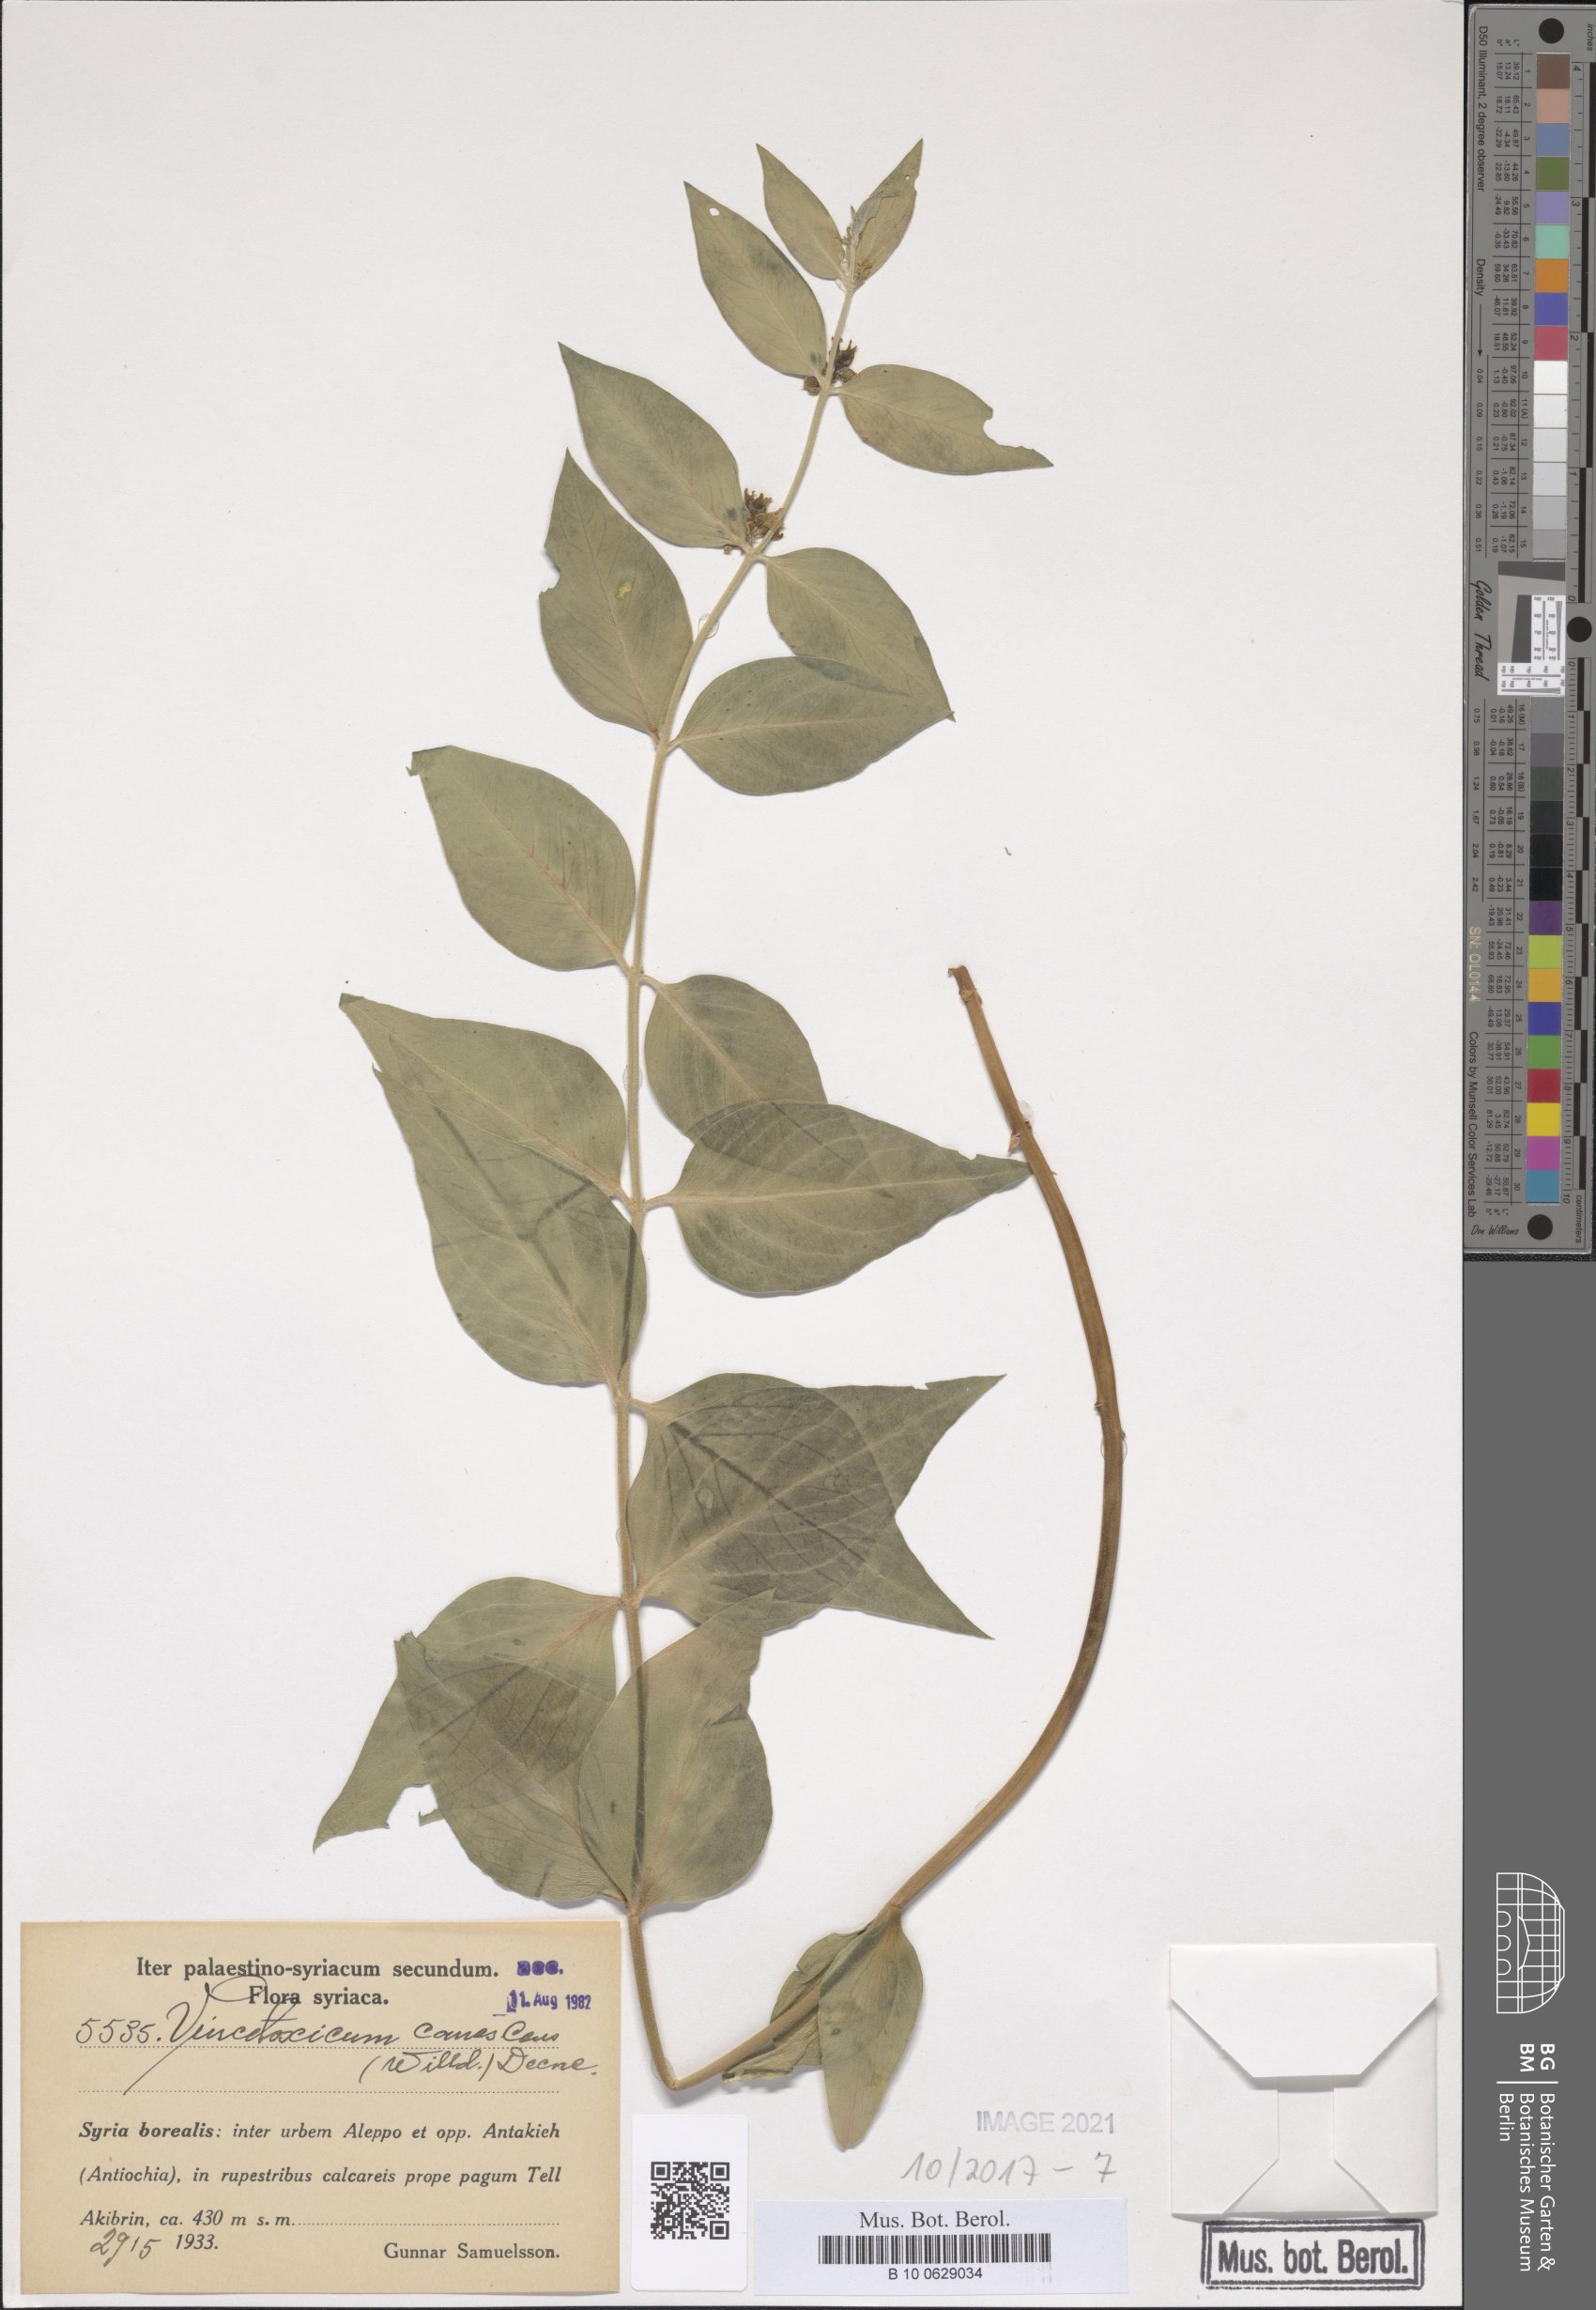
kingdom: Plantae
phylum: Tracheophyta
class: Magnoliopsida
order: Gentianales
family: Apocynaceae
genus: Vincetoxicum
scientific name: Vincetoxicum canescens
